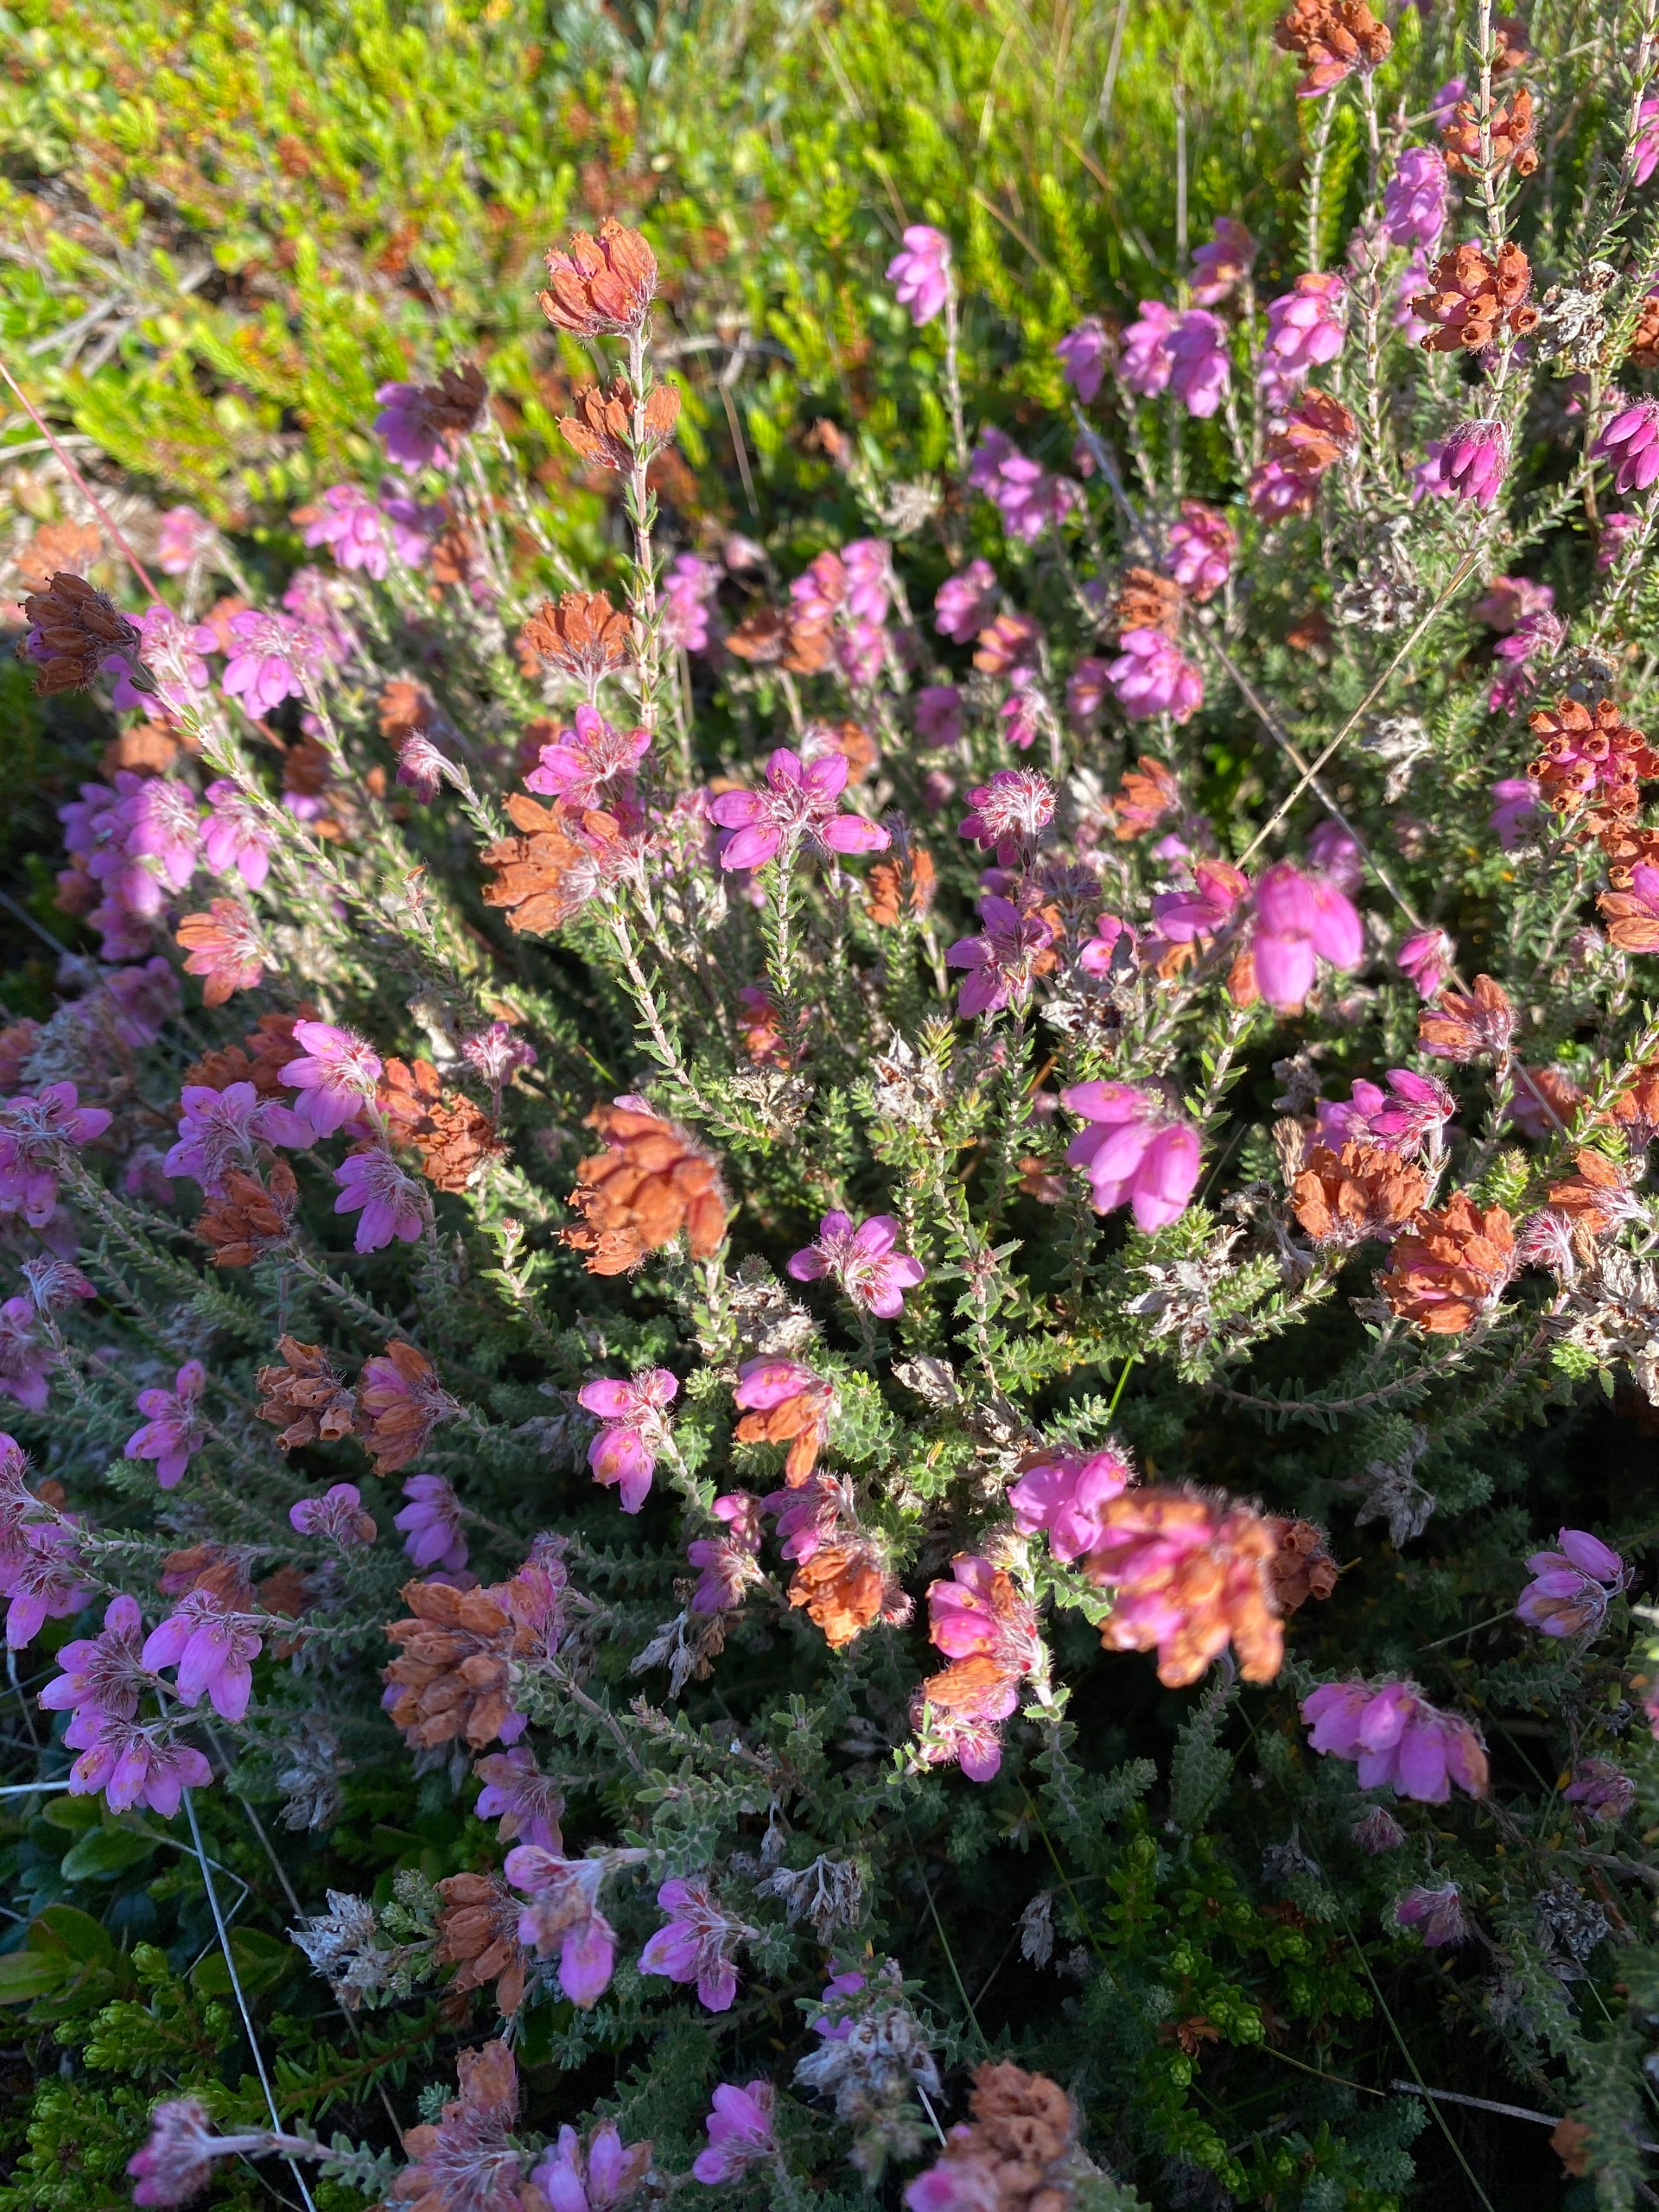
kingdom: Plantae
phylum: Tracheophyta
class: Magnoliopsida
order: Ericales
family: Ericaceae
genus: Erica
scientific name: Erica tetralix
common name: Klokkelyng
